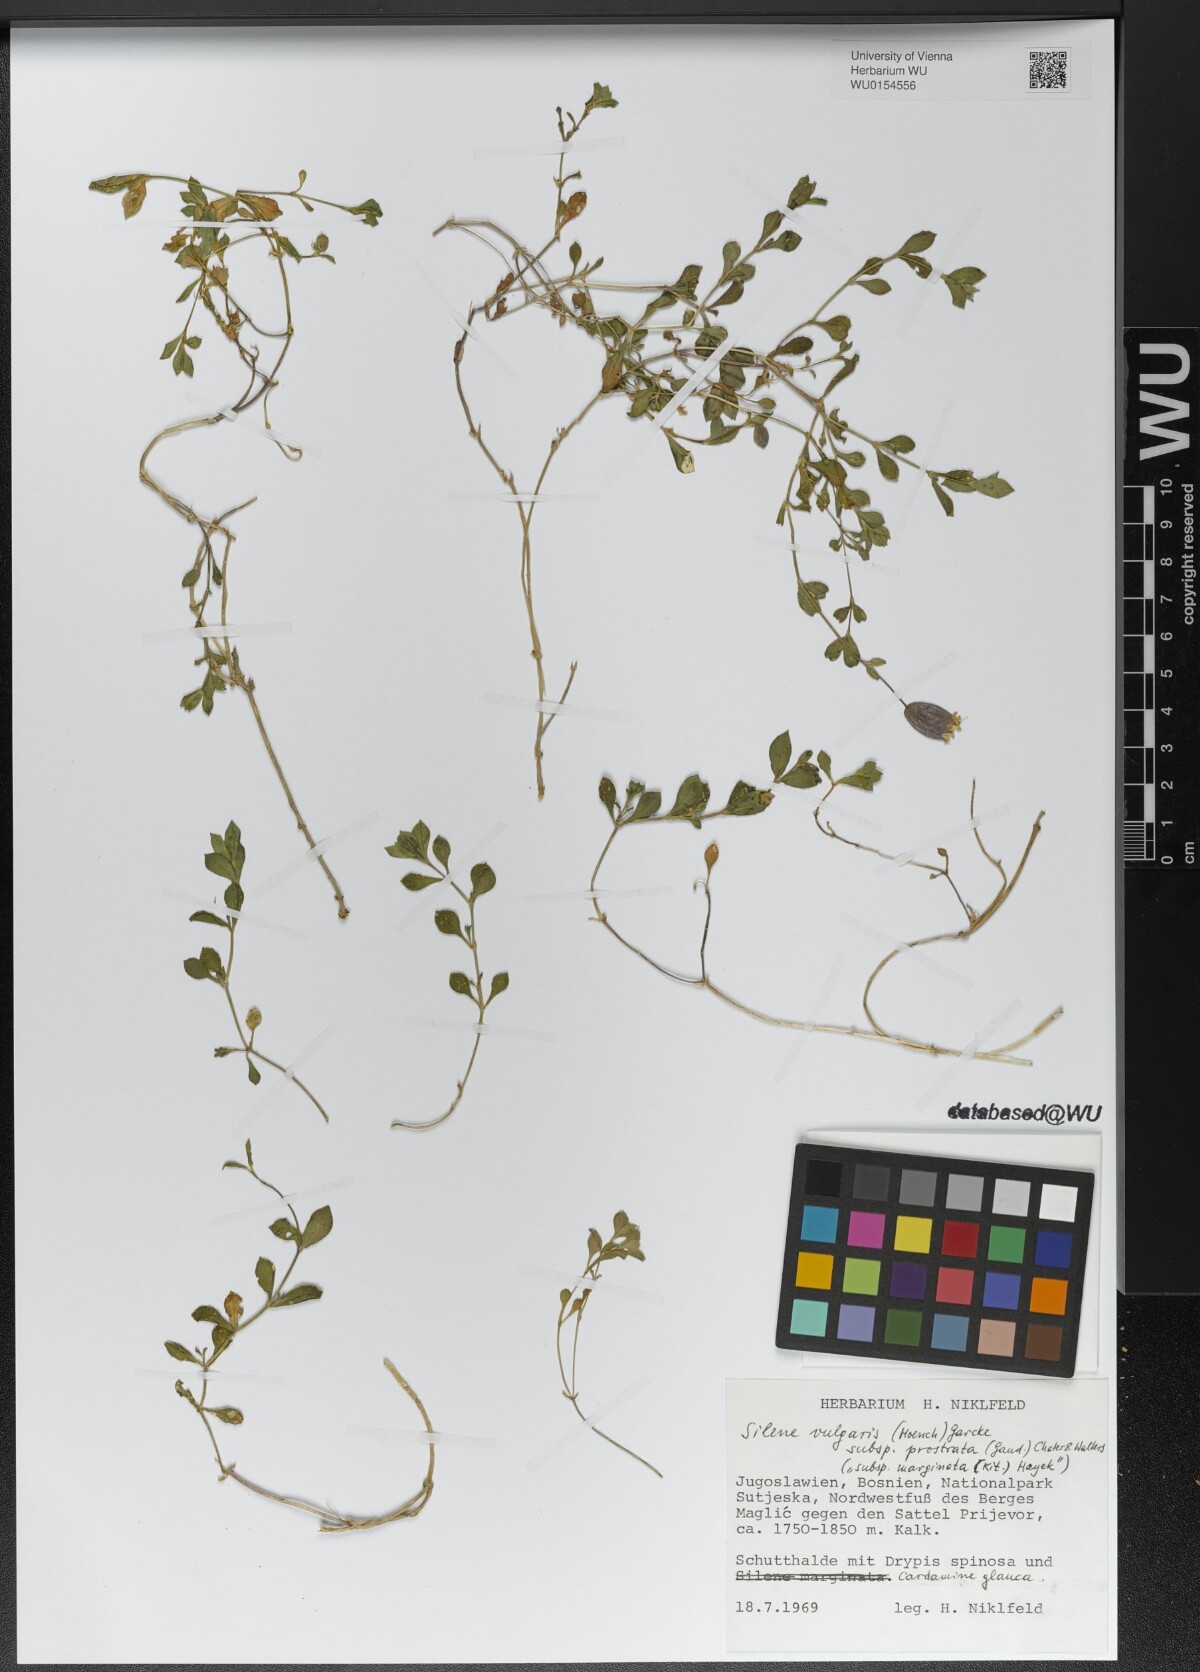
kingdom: Plantae
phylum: Tracheophyta
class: Magnoliopsida
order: Caryophyllales
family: Caryophyllaceae
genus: Silene
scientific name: Silene glareosa
